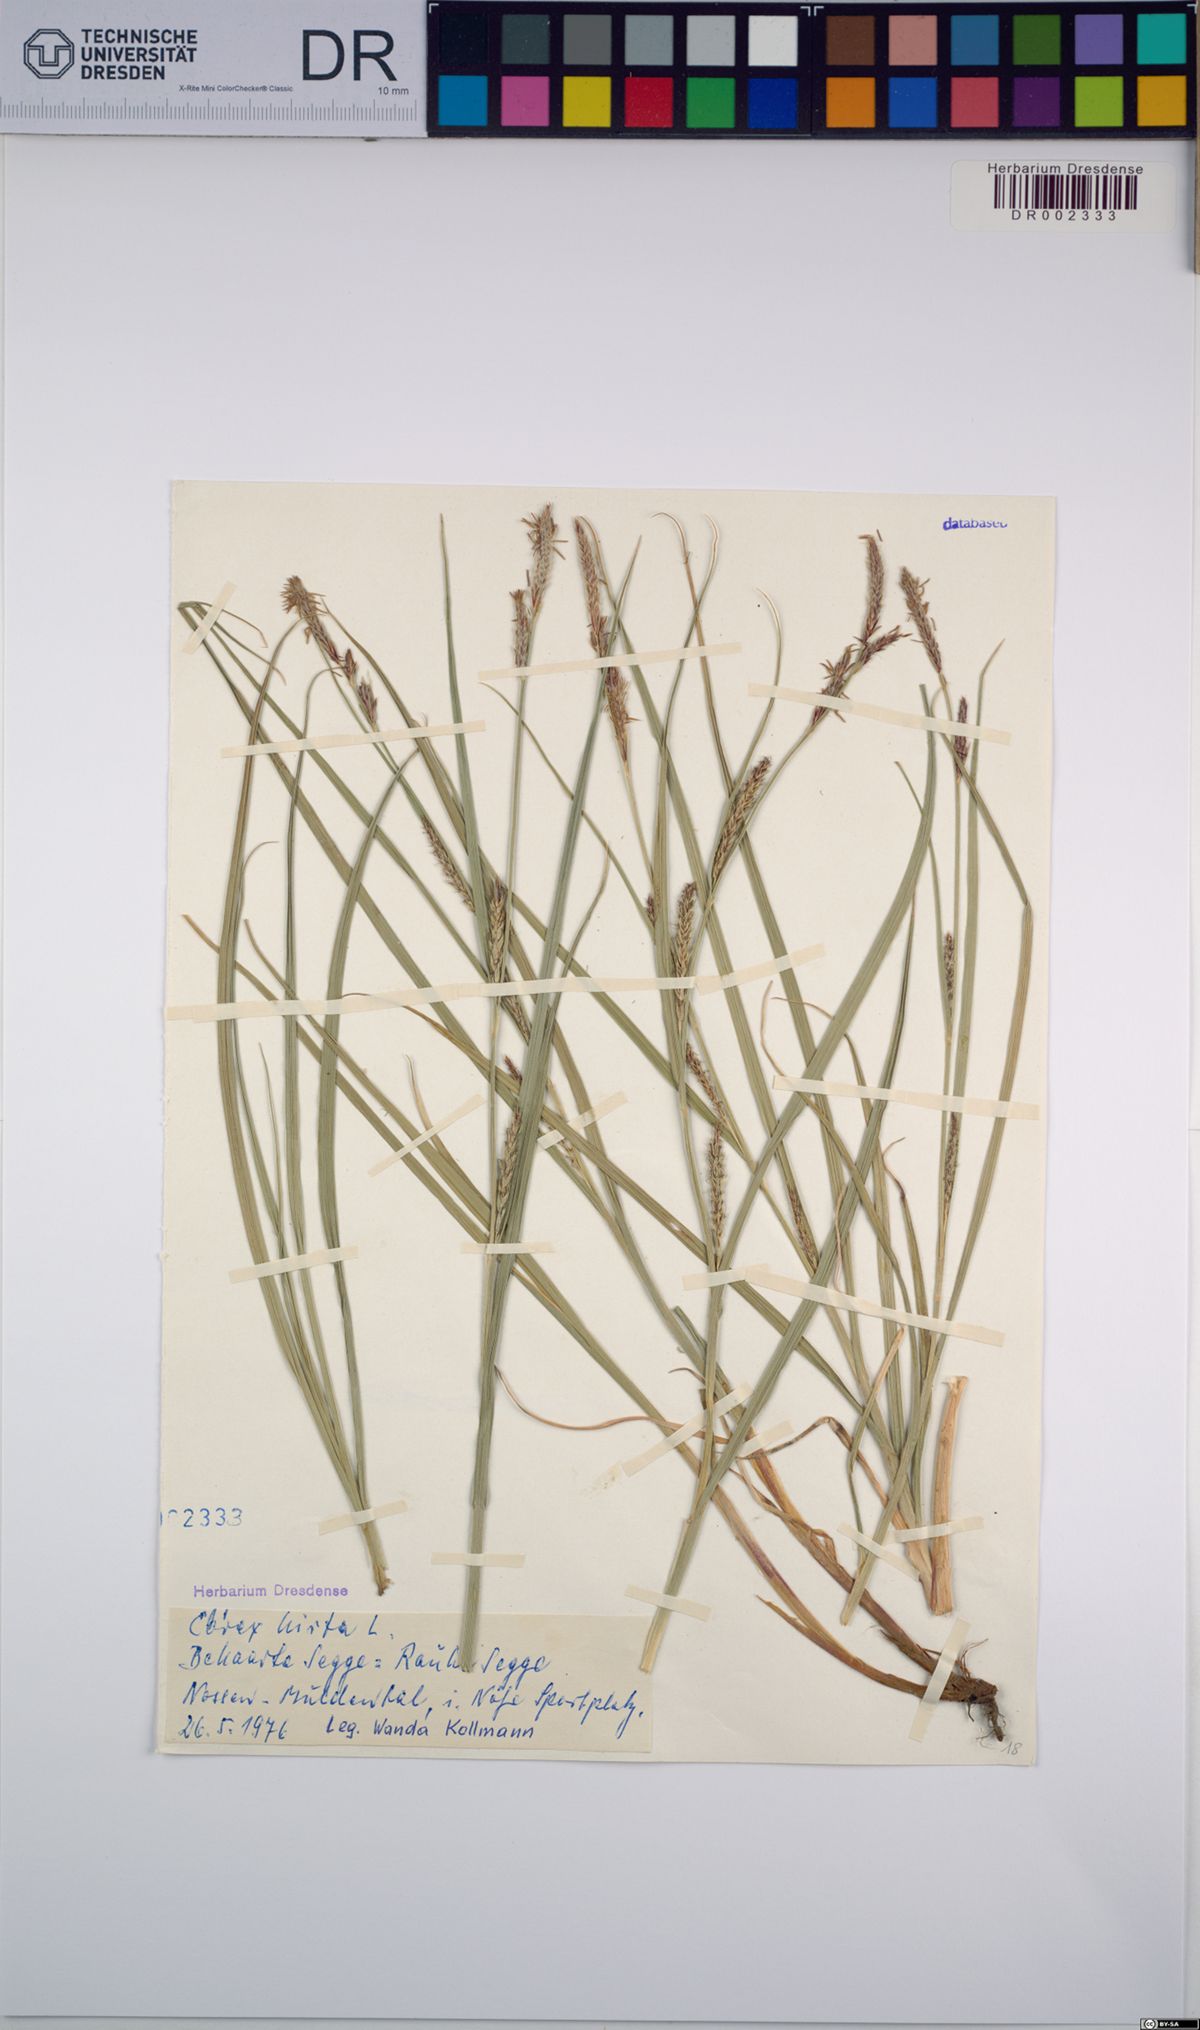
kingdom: Plantae
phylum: Tracheophyta
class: Liliopsida
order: Poales
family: Cyperaceae
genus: Carex
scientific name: Carex hirta
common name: Hairy sedge
